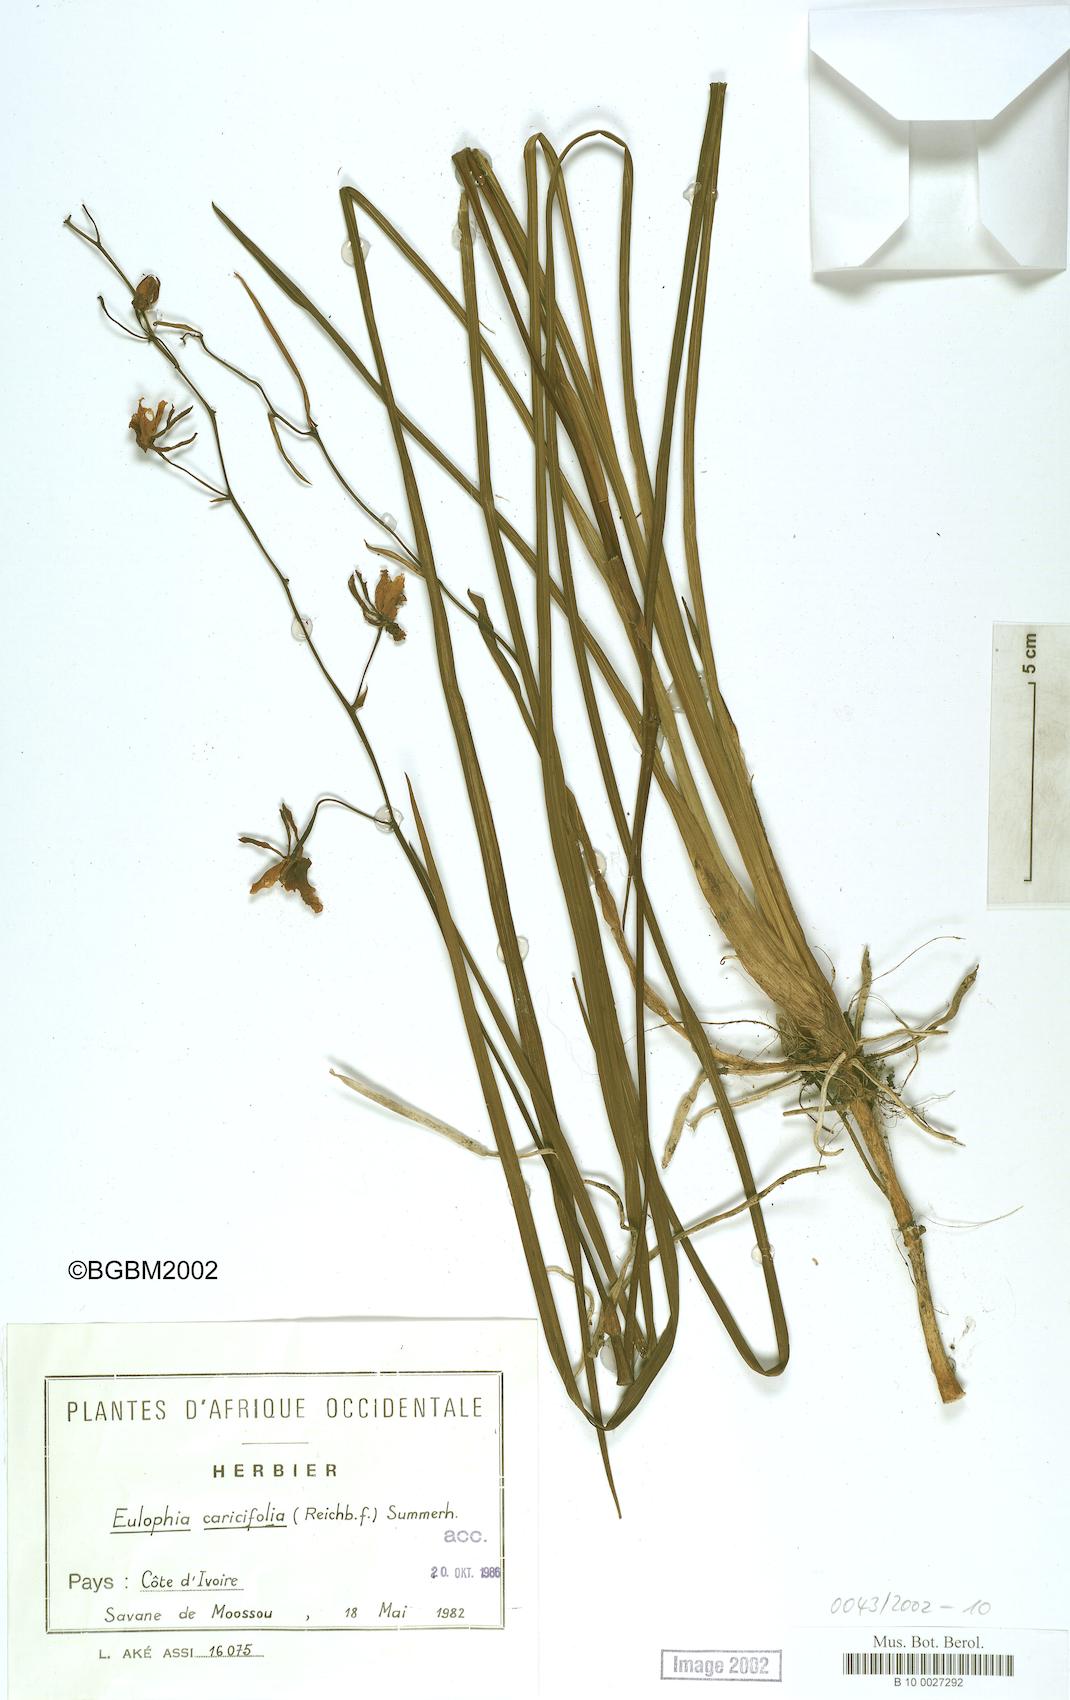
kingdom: Plantae
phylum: Tracheophyta
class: Liliopsida
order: Asparagales
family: Orchidaceae
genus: Eulophia
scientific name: Eulophia caricifolia
